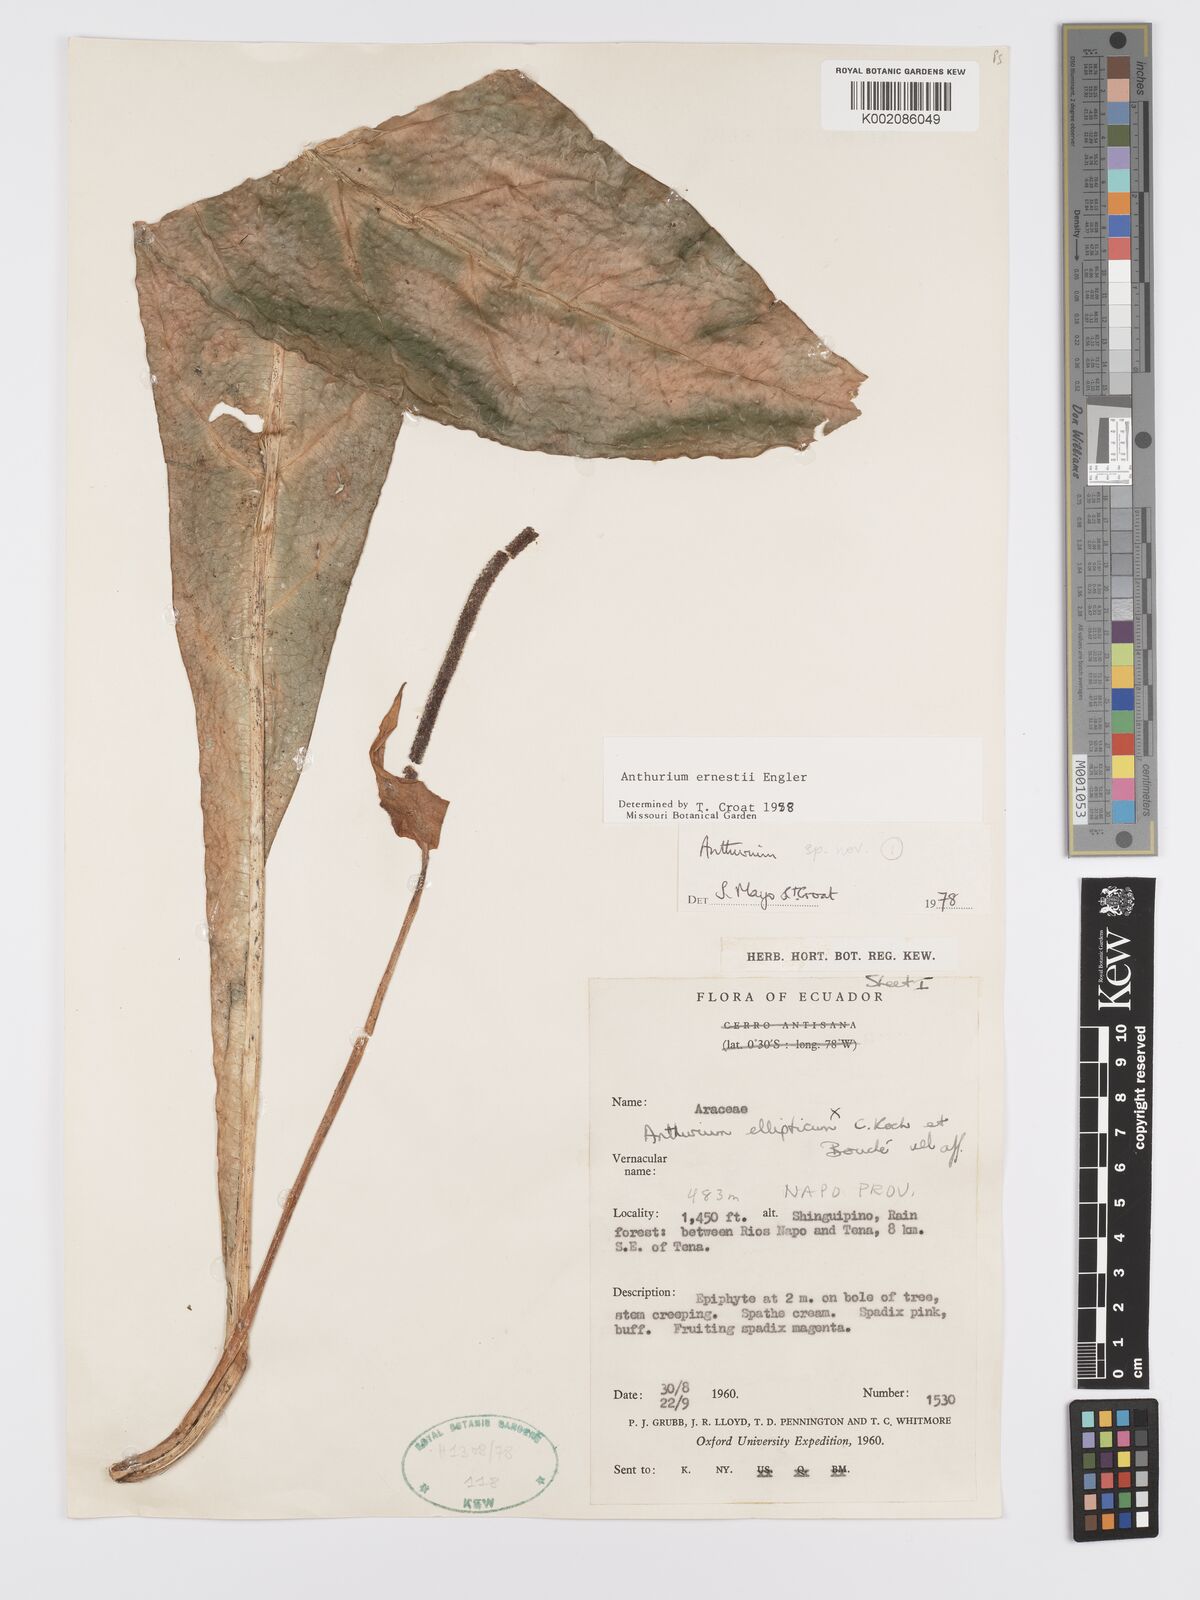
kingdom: Plantae
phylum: Tracheophyta
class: Liliopsida
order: Alismatales
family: Araceae
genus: Anthurium
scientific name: Anthurium ernesti
